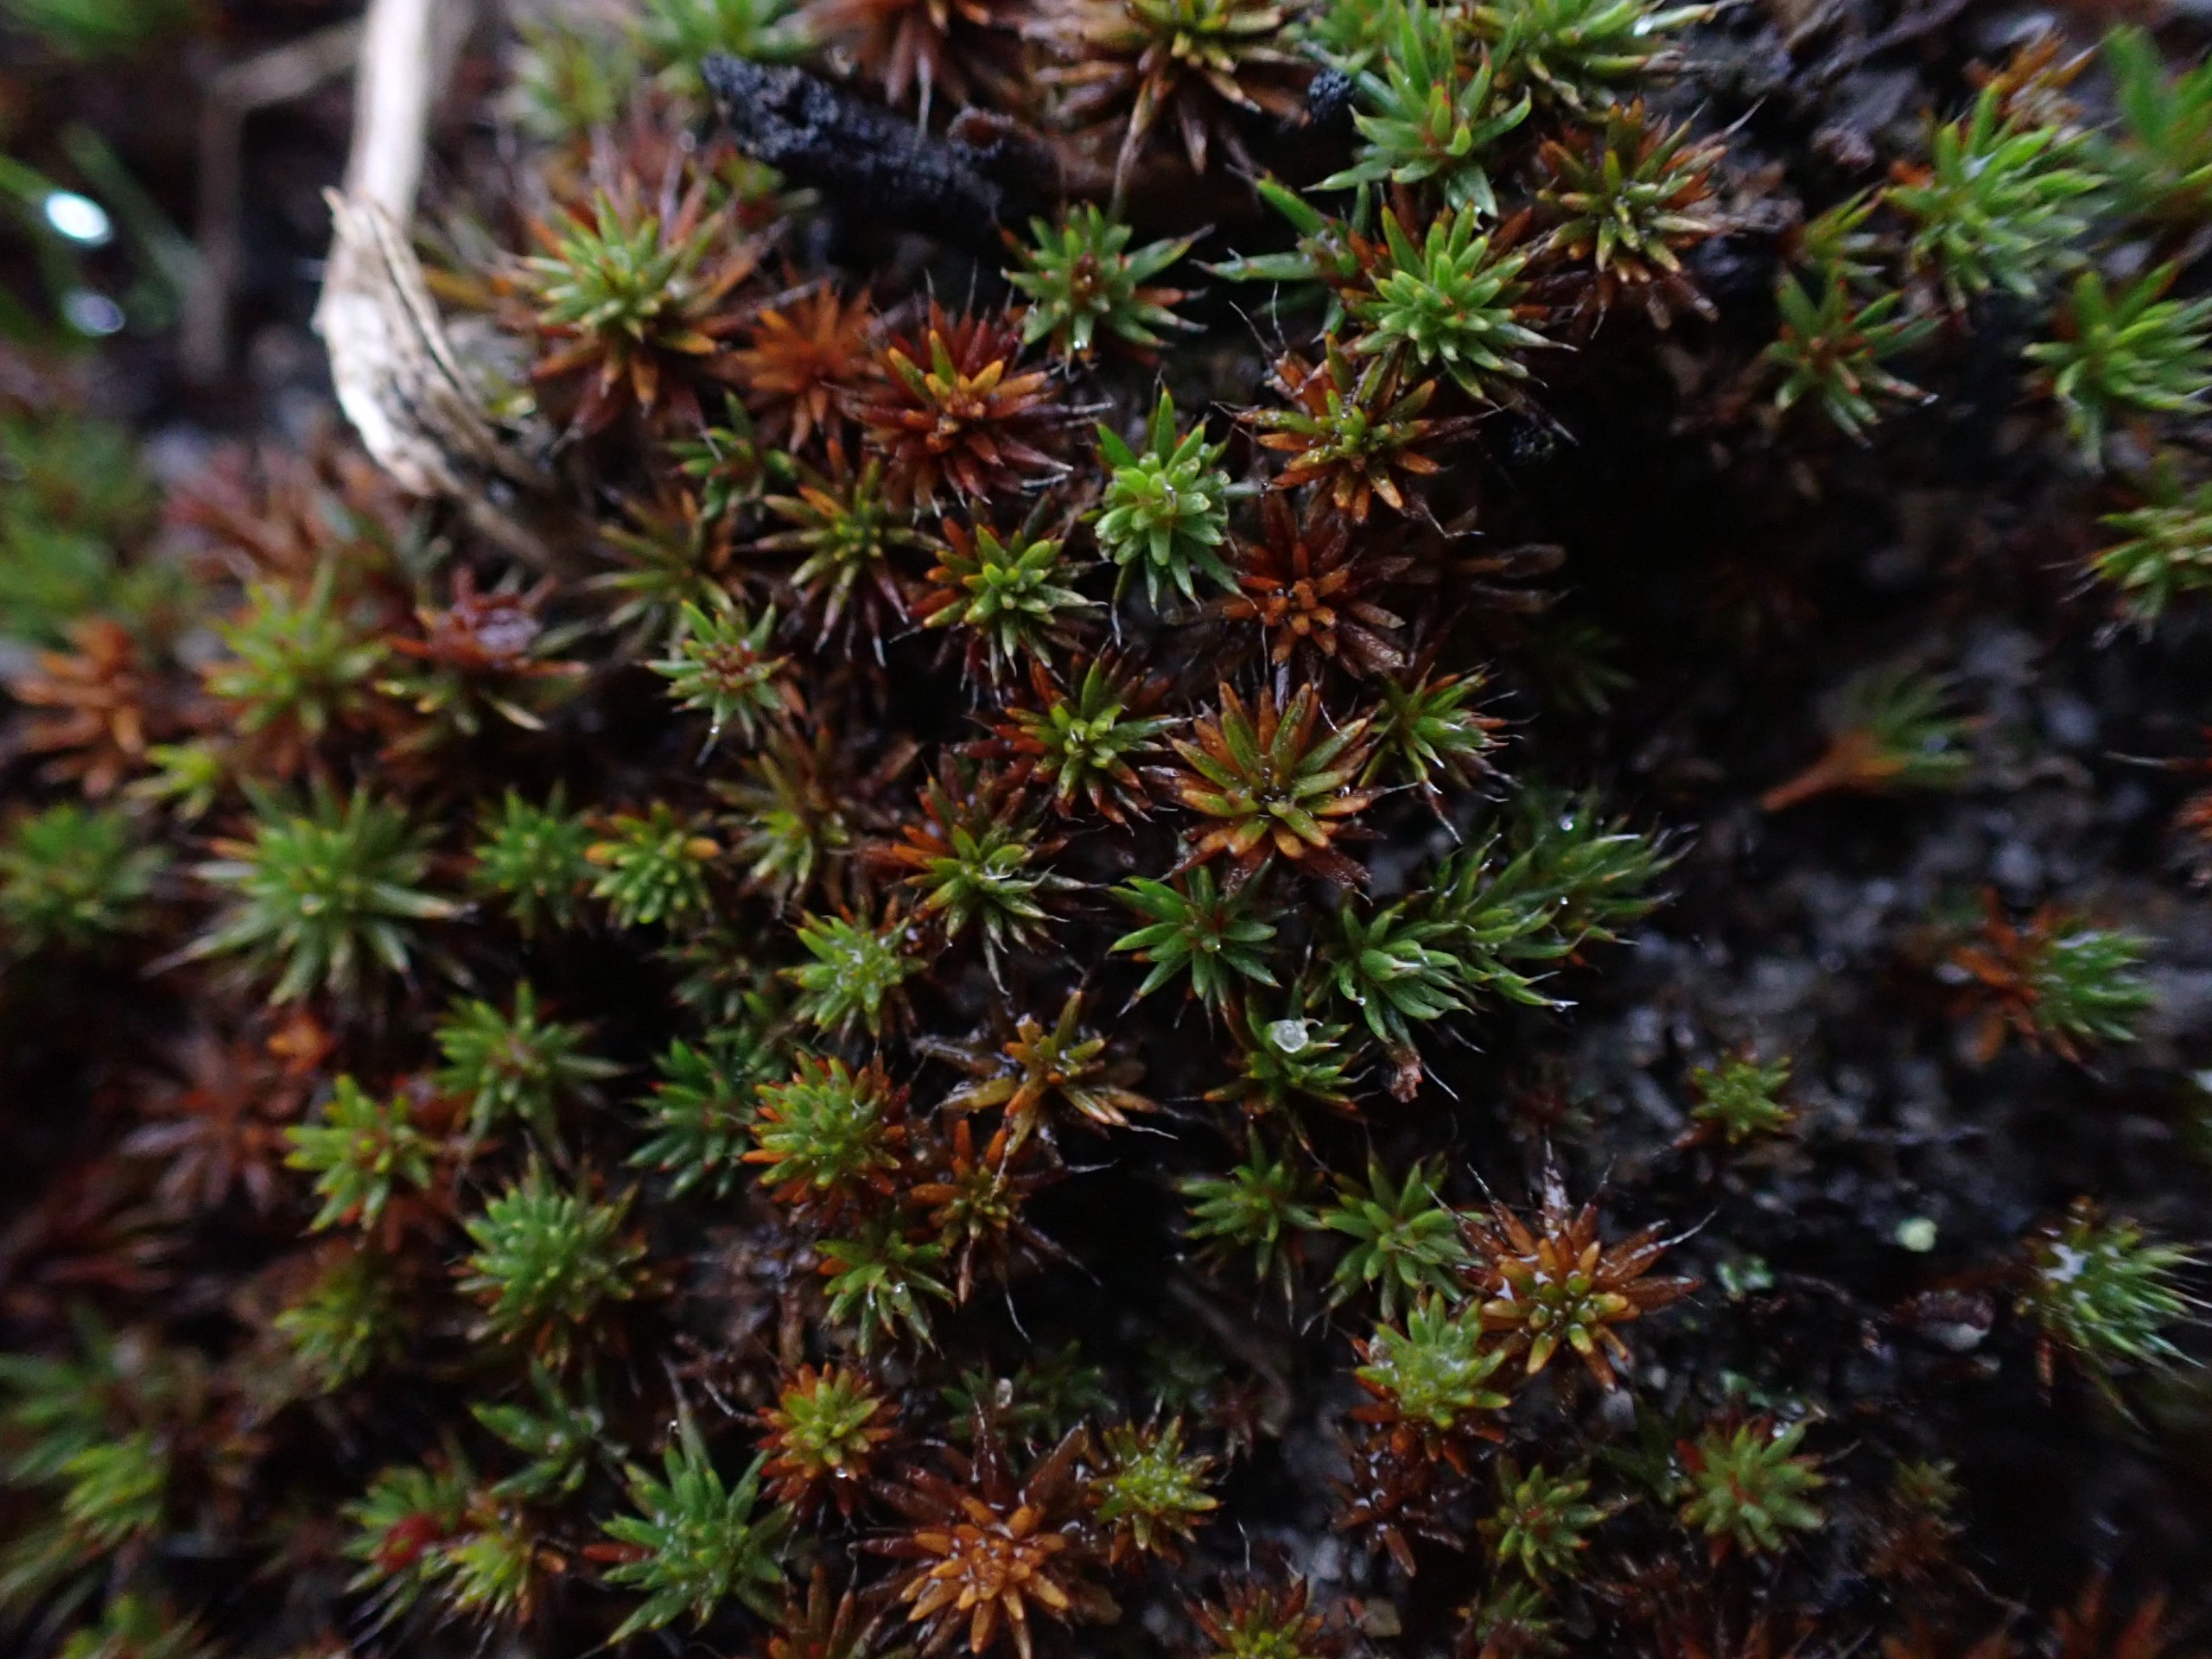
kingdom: Plantae
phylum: Bryophyta
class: Polytrichopsida
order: Polytrichales
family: Polytrichaceae
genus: Polytrichum
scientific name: Polytrichum piliferum
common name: Hårspidset jomfruhår
